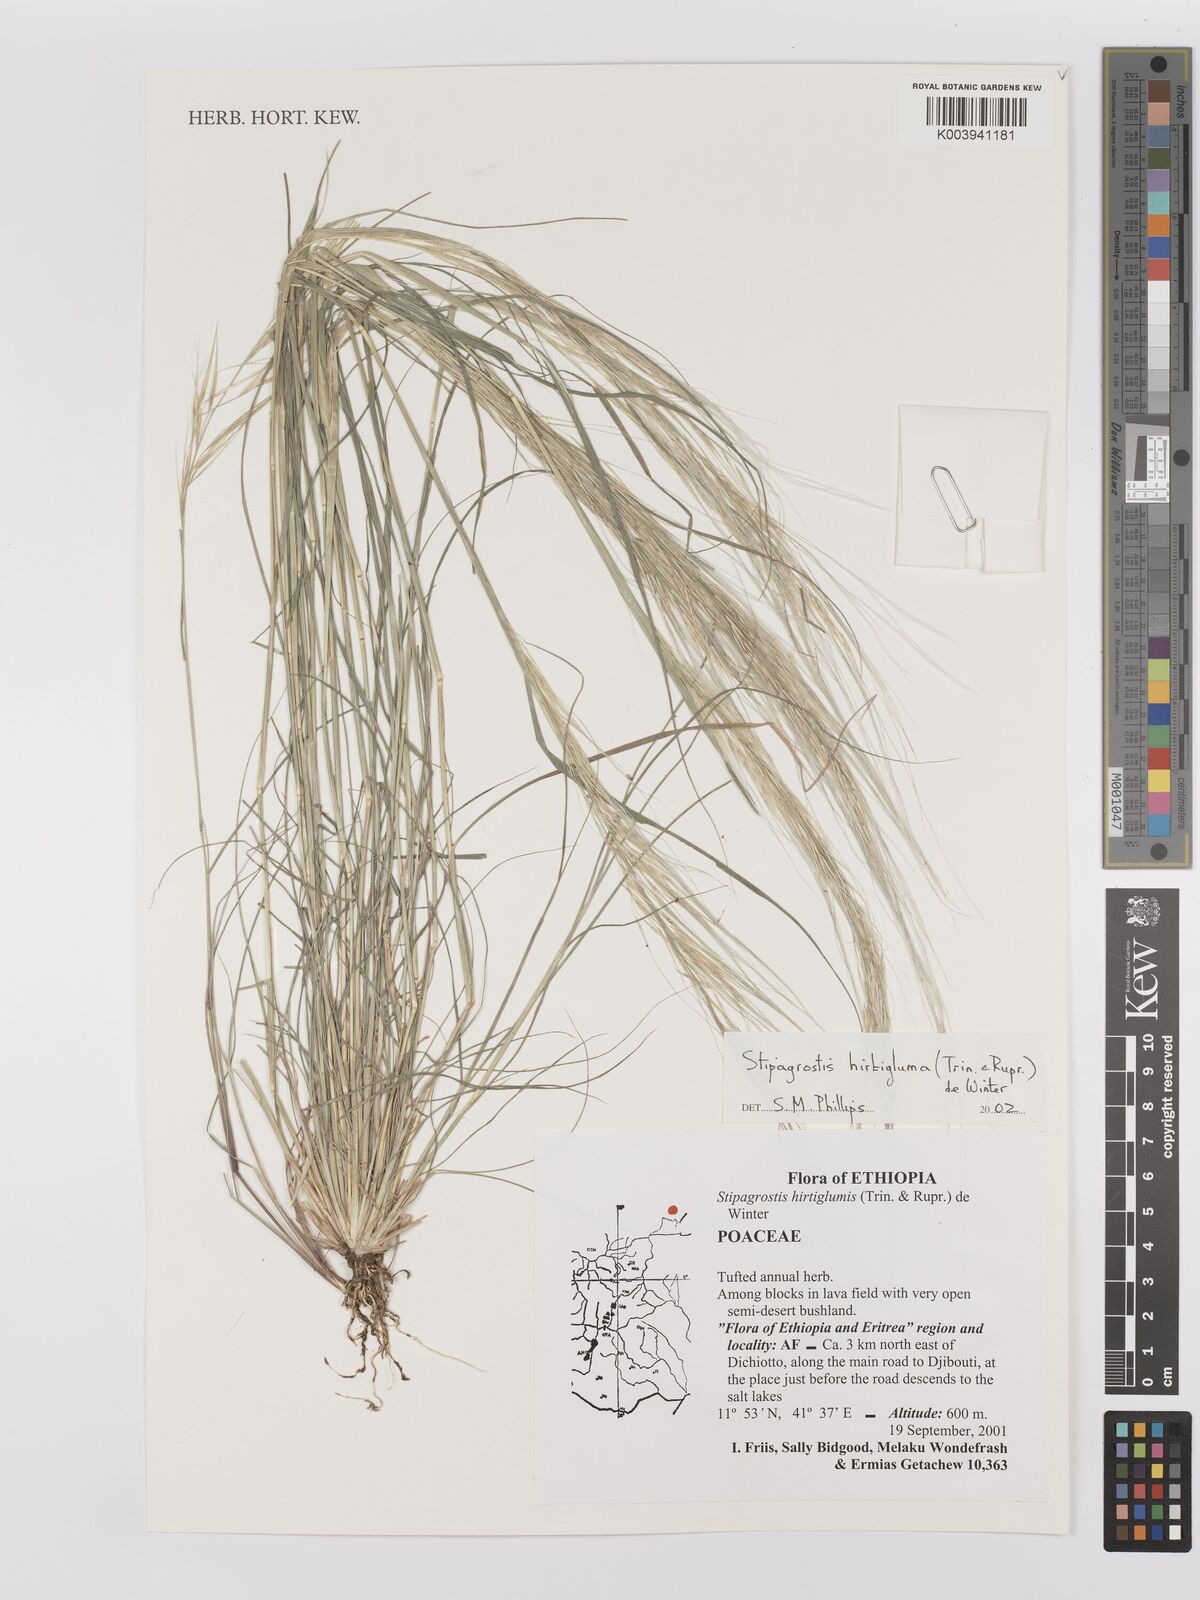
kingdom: Plantae
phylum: Tracheophyta
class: Liliopsida
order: Poales
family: Poaceae
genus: Stipagrostis
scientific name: Stipagrostis hirtigluma
